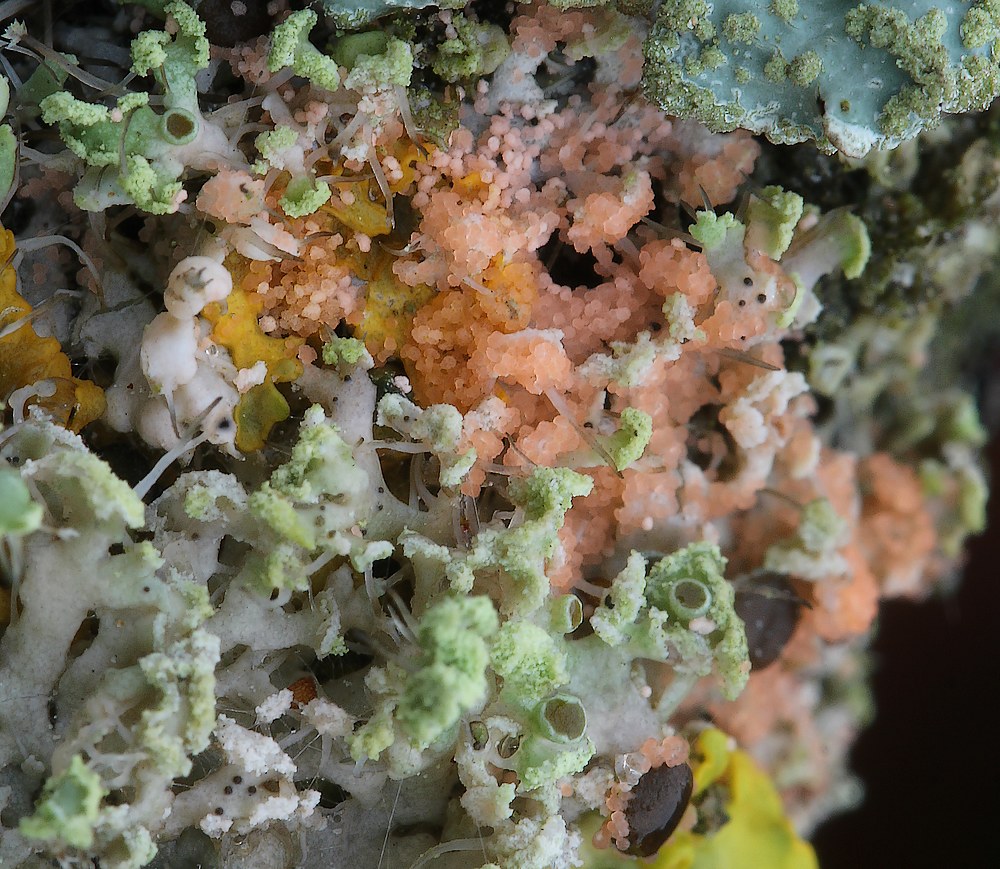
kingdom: Fungi
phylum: Basidiomycota
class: Agaricomycetes
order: Corticiales
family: Corticiaceae
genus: Erythricium
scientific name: Erythricium aurantiacum
